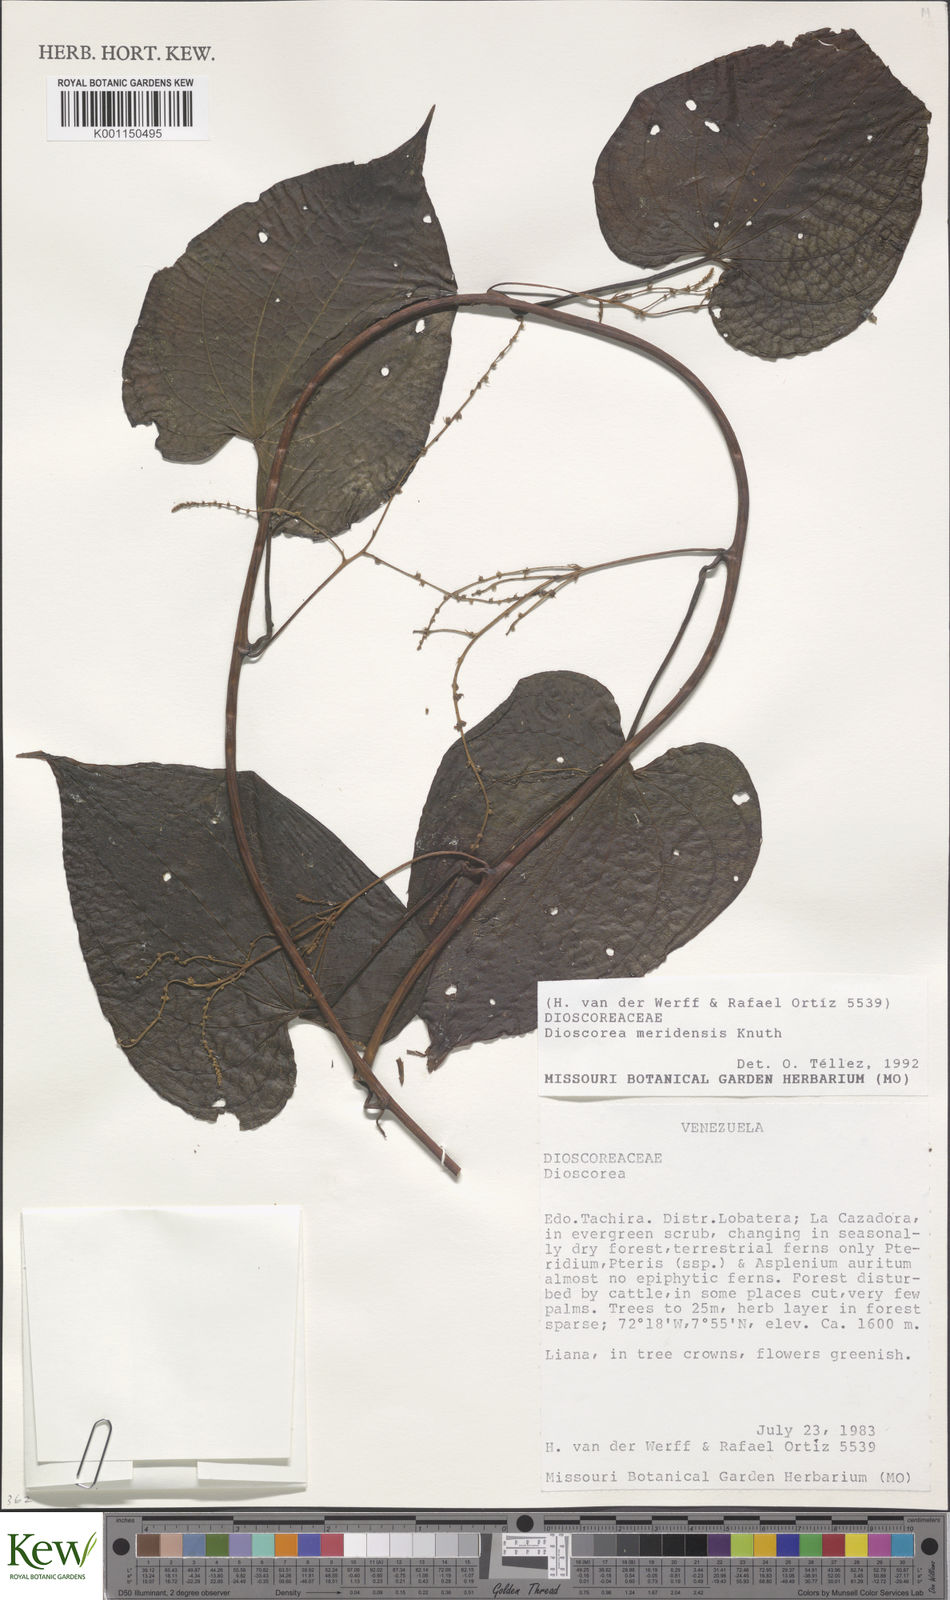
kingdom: Plantae
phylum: Tracheophyta
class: Liliopsida
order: Dioscoreales
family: Dioscoreaceae
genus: Dioscorea
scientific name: Dioscorea meridensis
